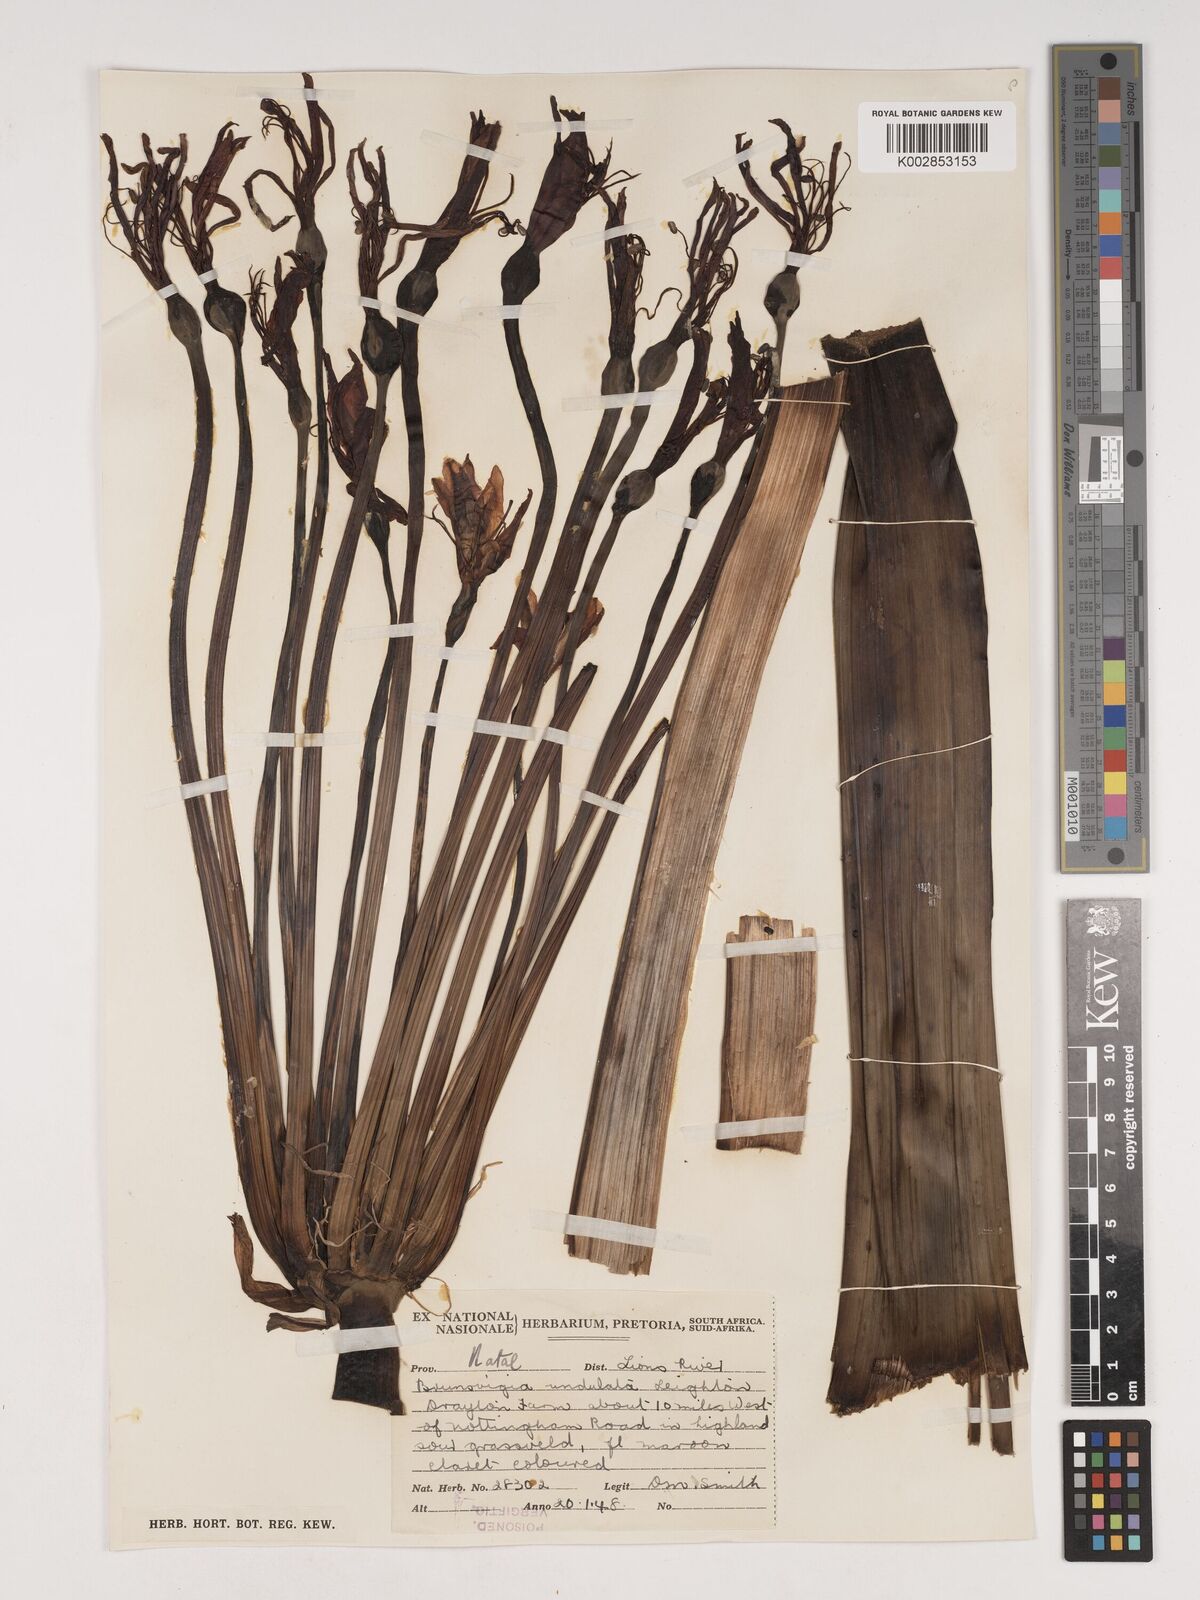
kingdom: Plantae
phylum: Tracheophyta
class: Liliopsida
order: Asparagales
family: Amaryllidaceae
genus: Brunsvigia
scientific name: Brunsvigia undulata
